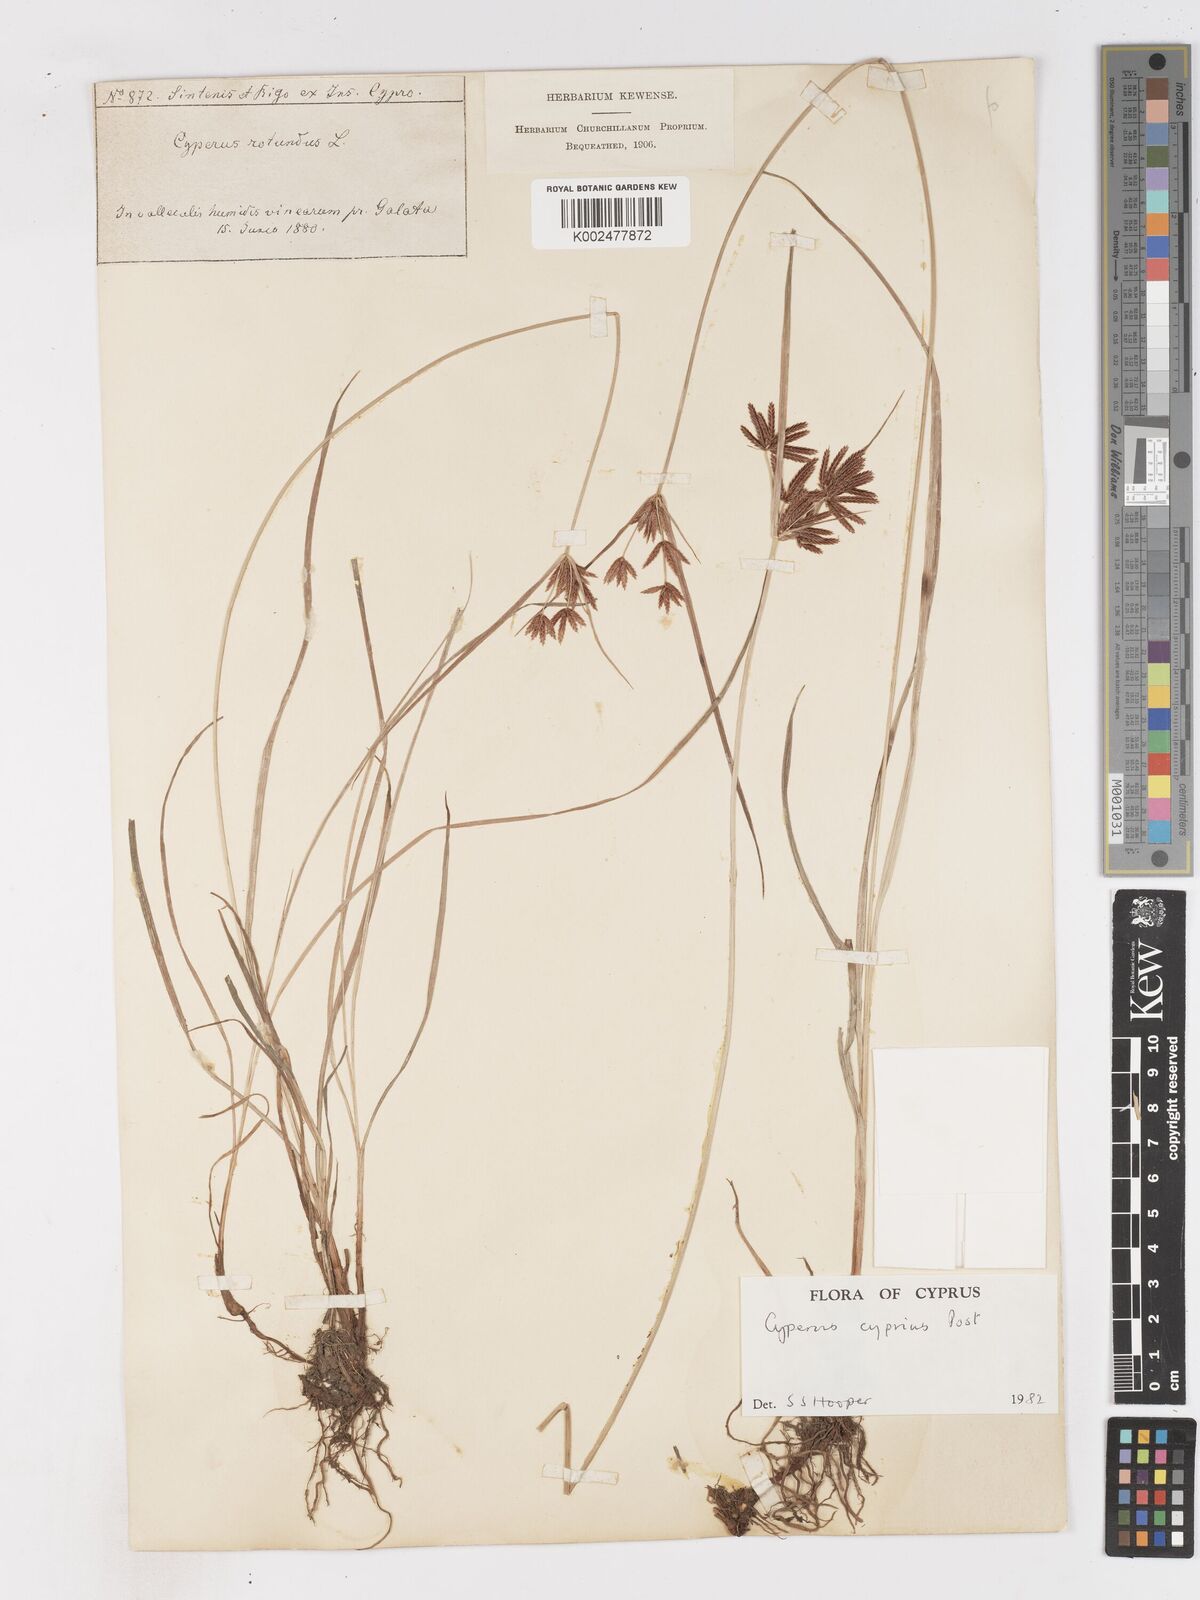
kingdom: Plantae
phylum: Tracheophyta
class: Liliopsida
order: Poales
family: Cyperaceae
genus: Cyperus
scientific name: Cyperus longus
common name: Galingale
